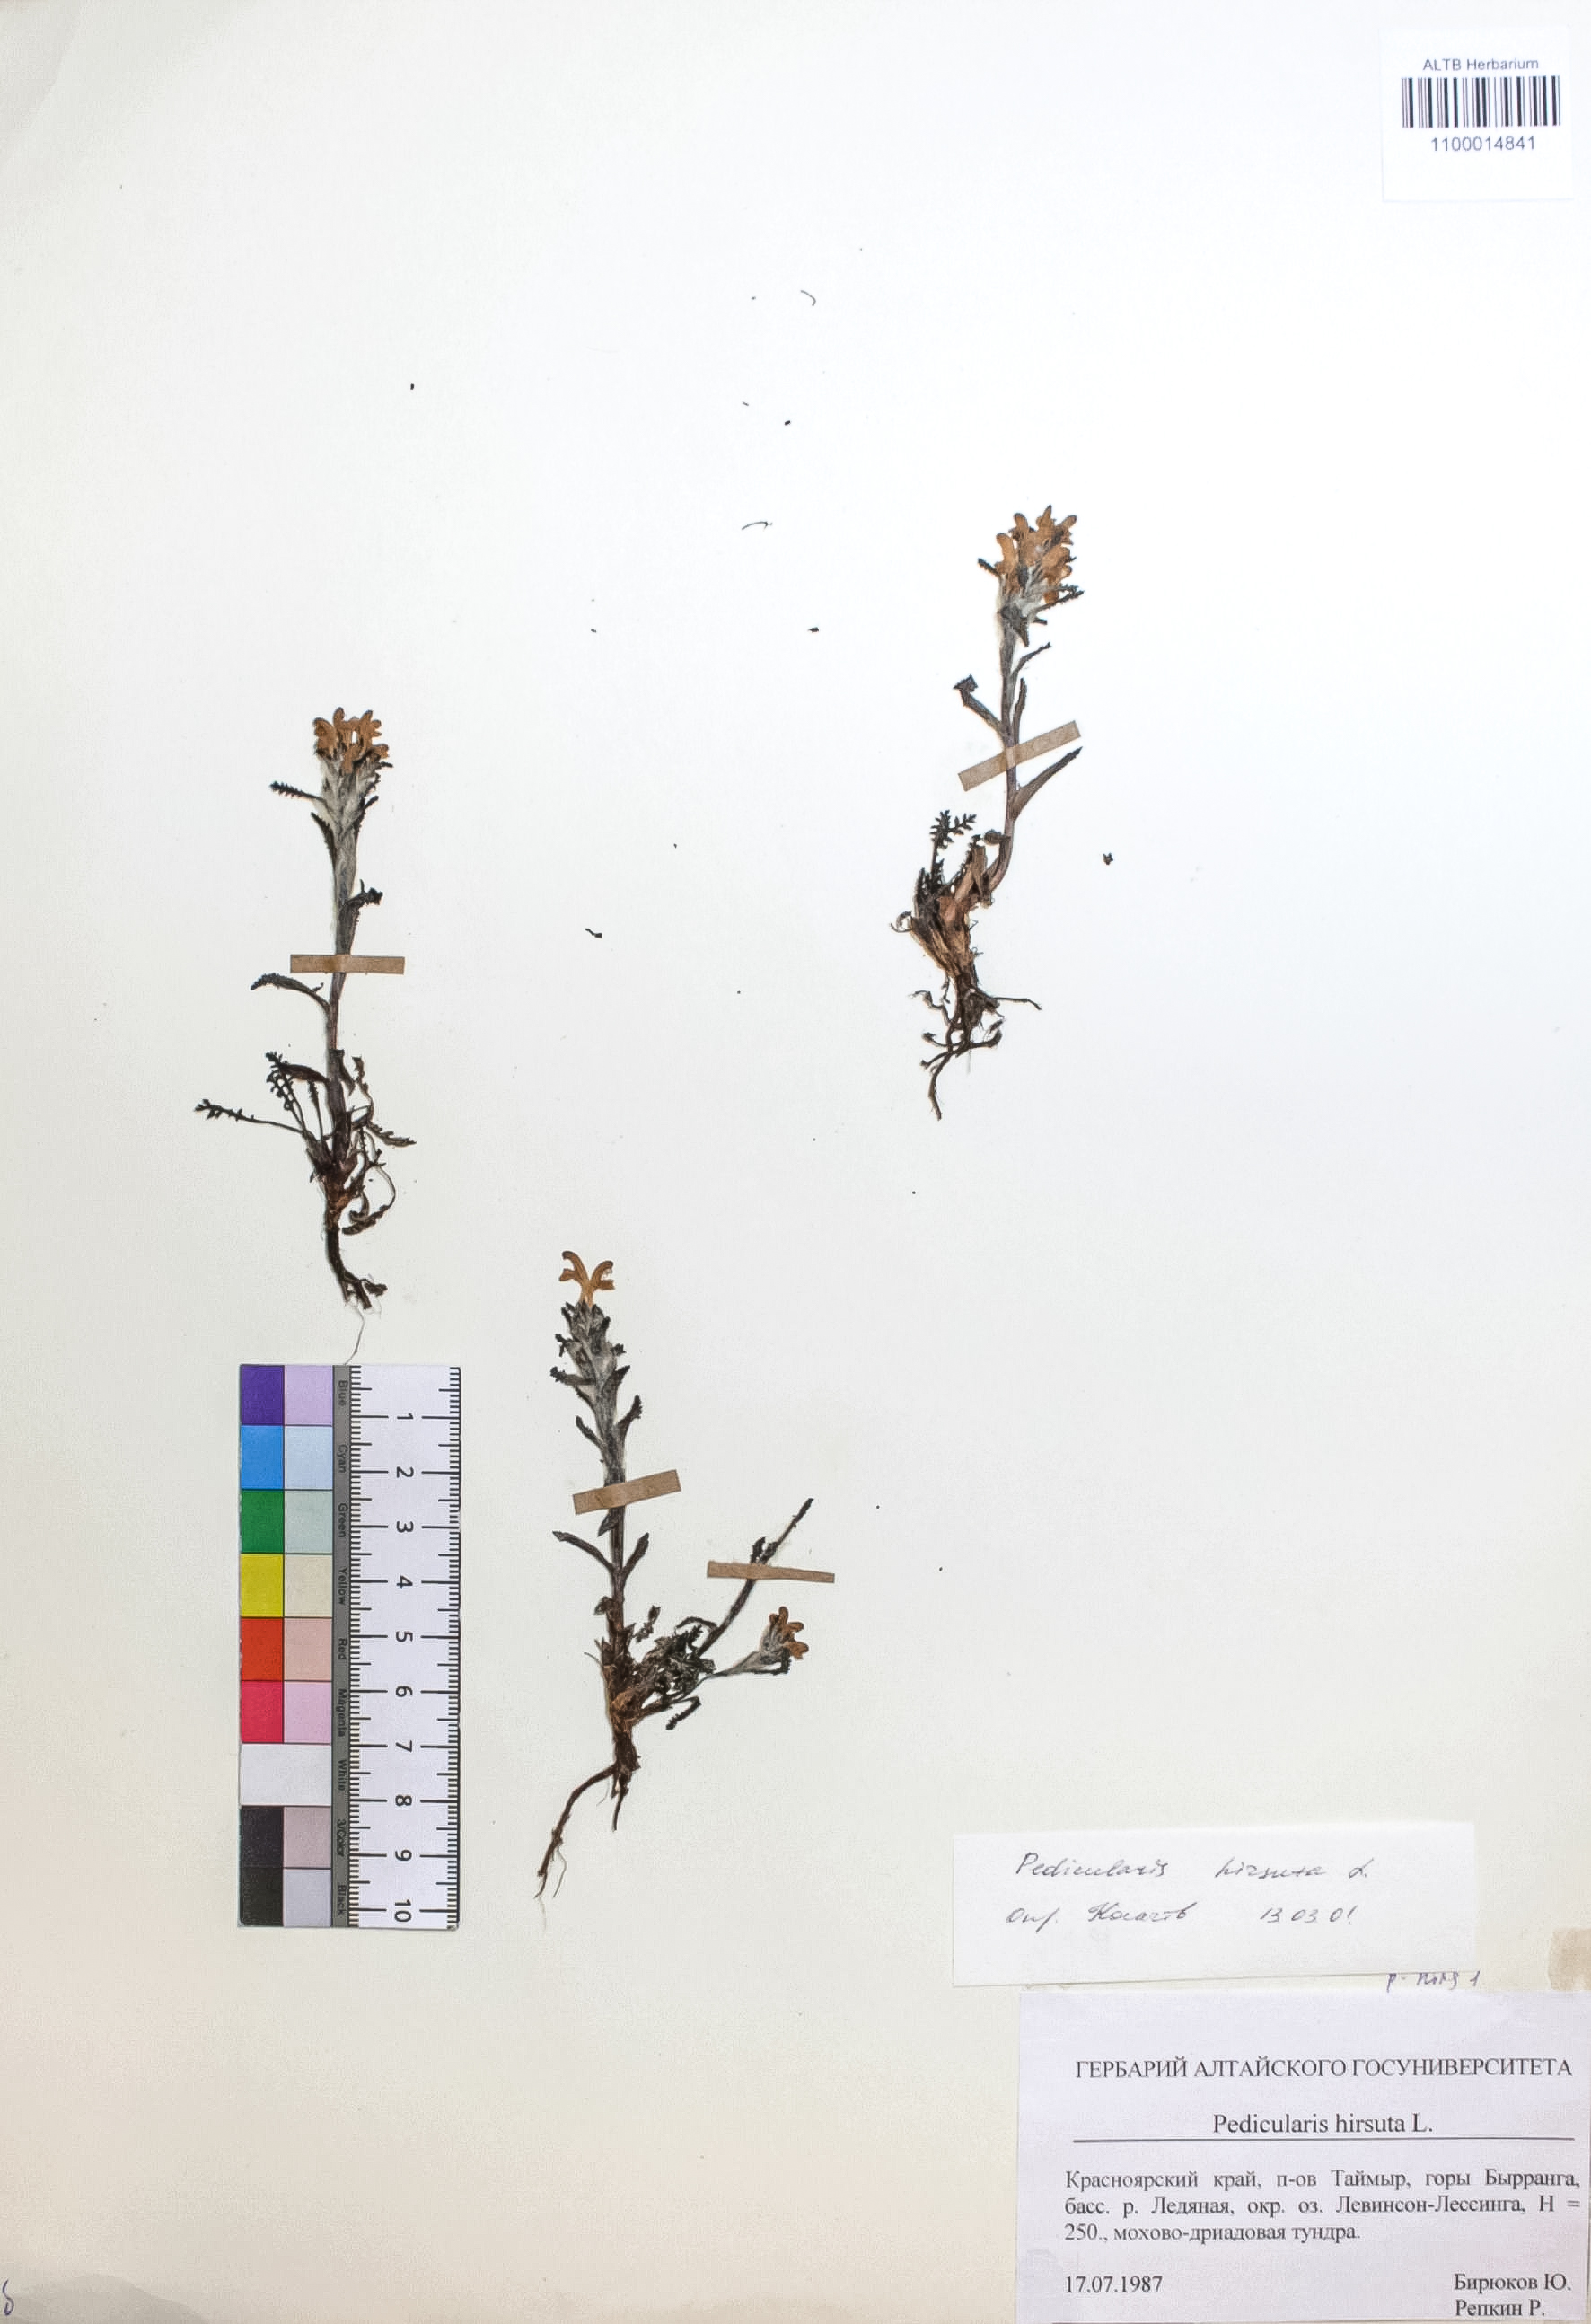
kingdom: Plantae
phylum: Tracheophyta
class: Magnoliopsida
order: Lamiales
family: Orobanchaceae
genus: Pedicularis
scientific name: Pedicularis hirsuta
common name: Hairy lousewort
